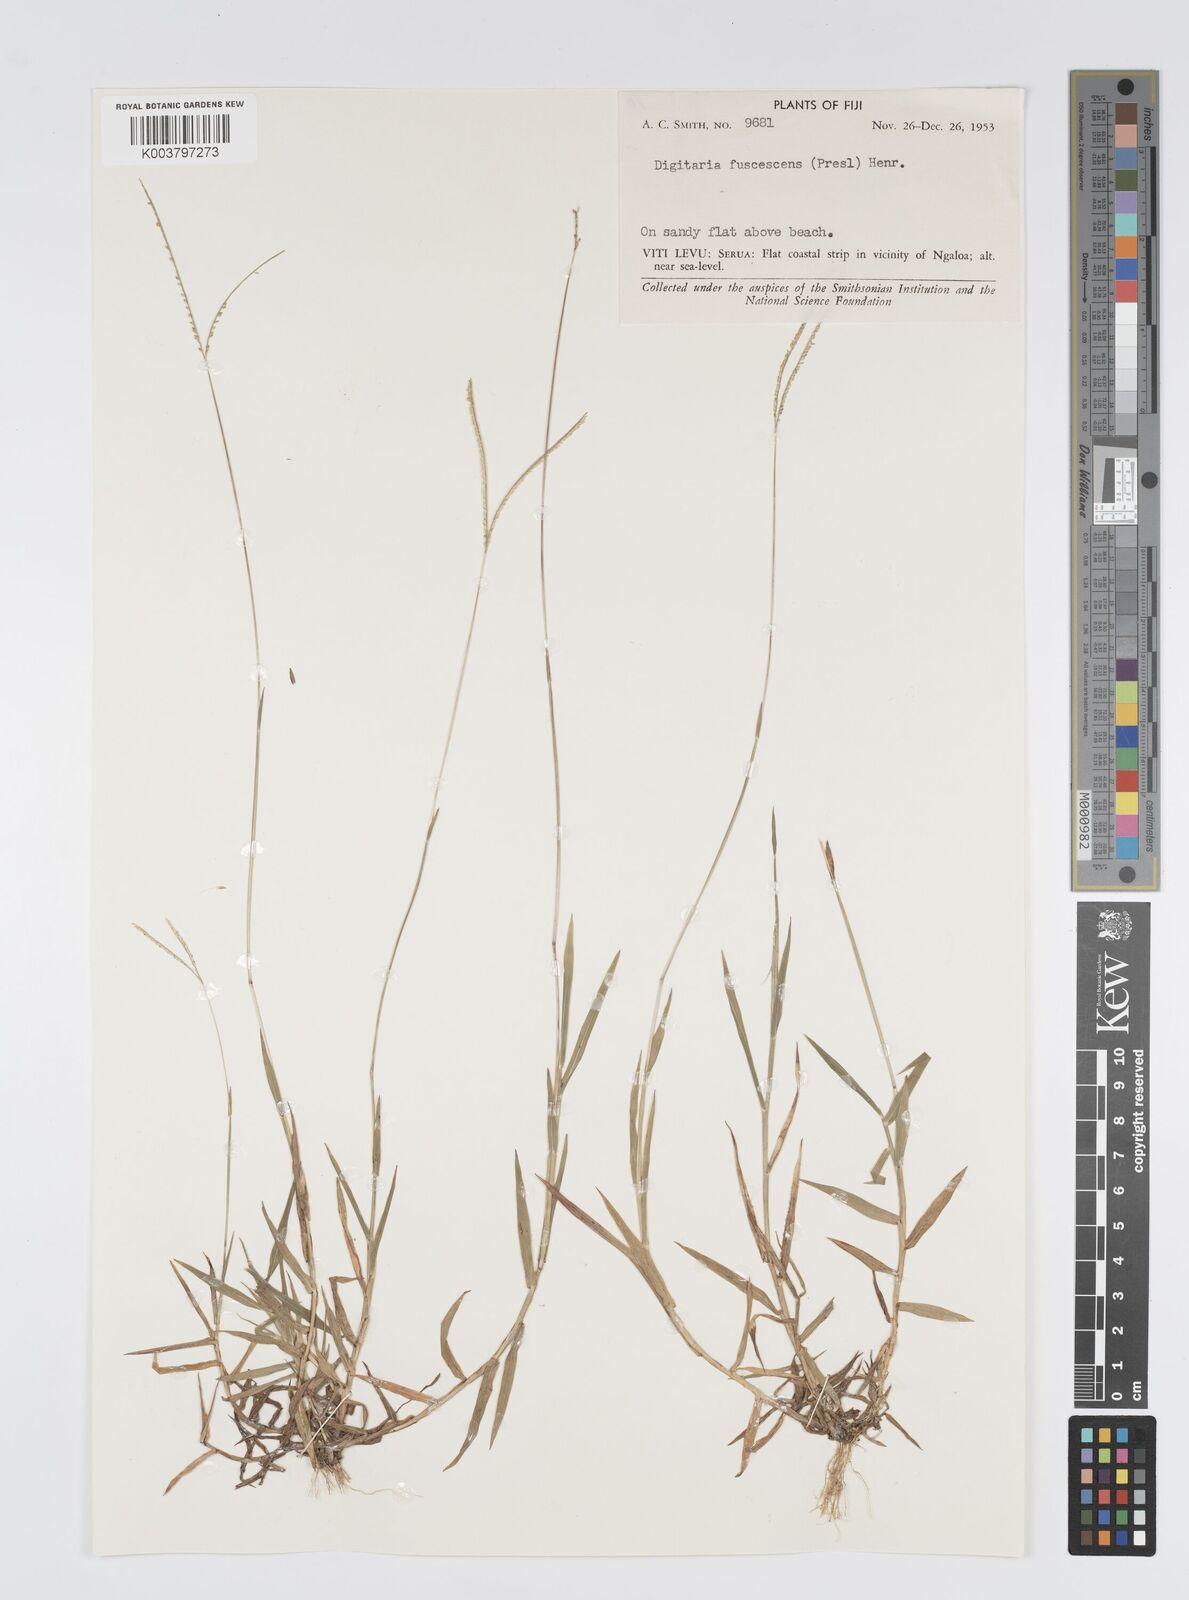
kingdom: Plantae
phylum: Tracheophyta
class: Liliopsida
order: Poales
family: Poaceae
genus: Digitaria
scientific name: Digitaria fuscescens
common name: Yellow crabgrass
